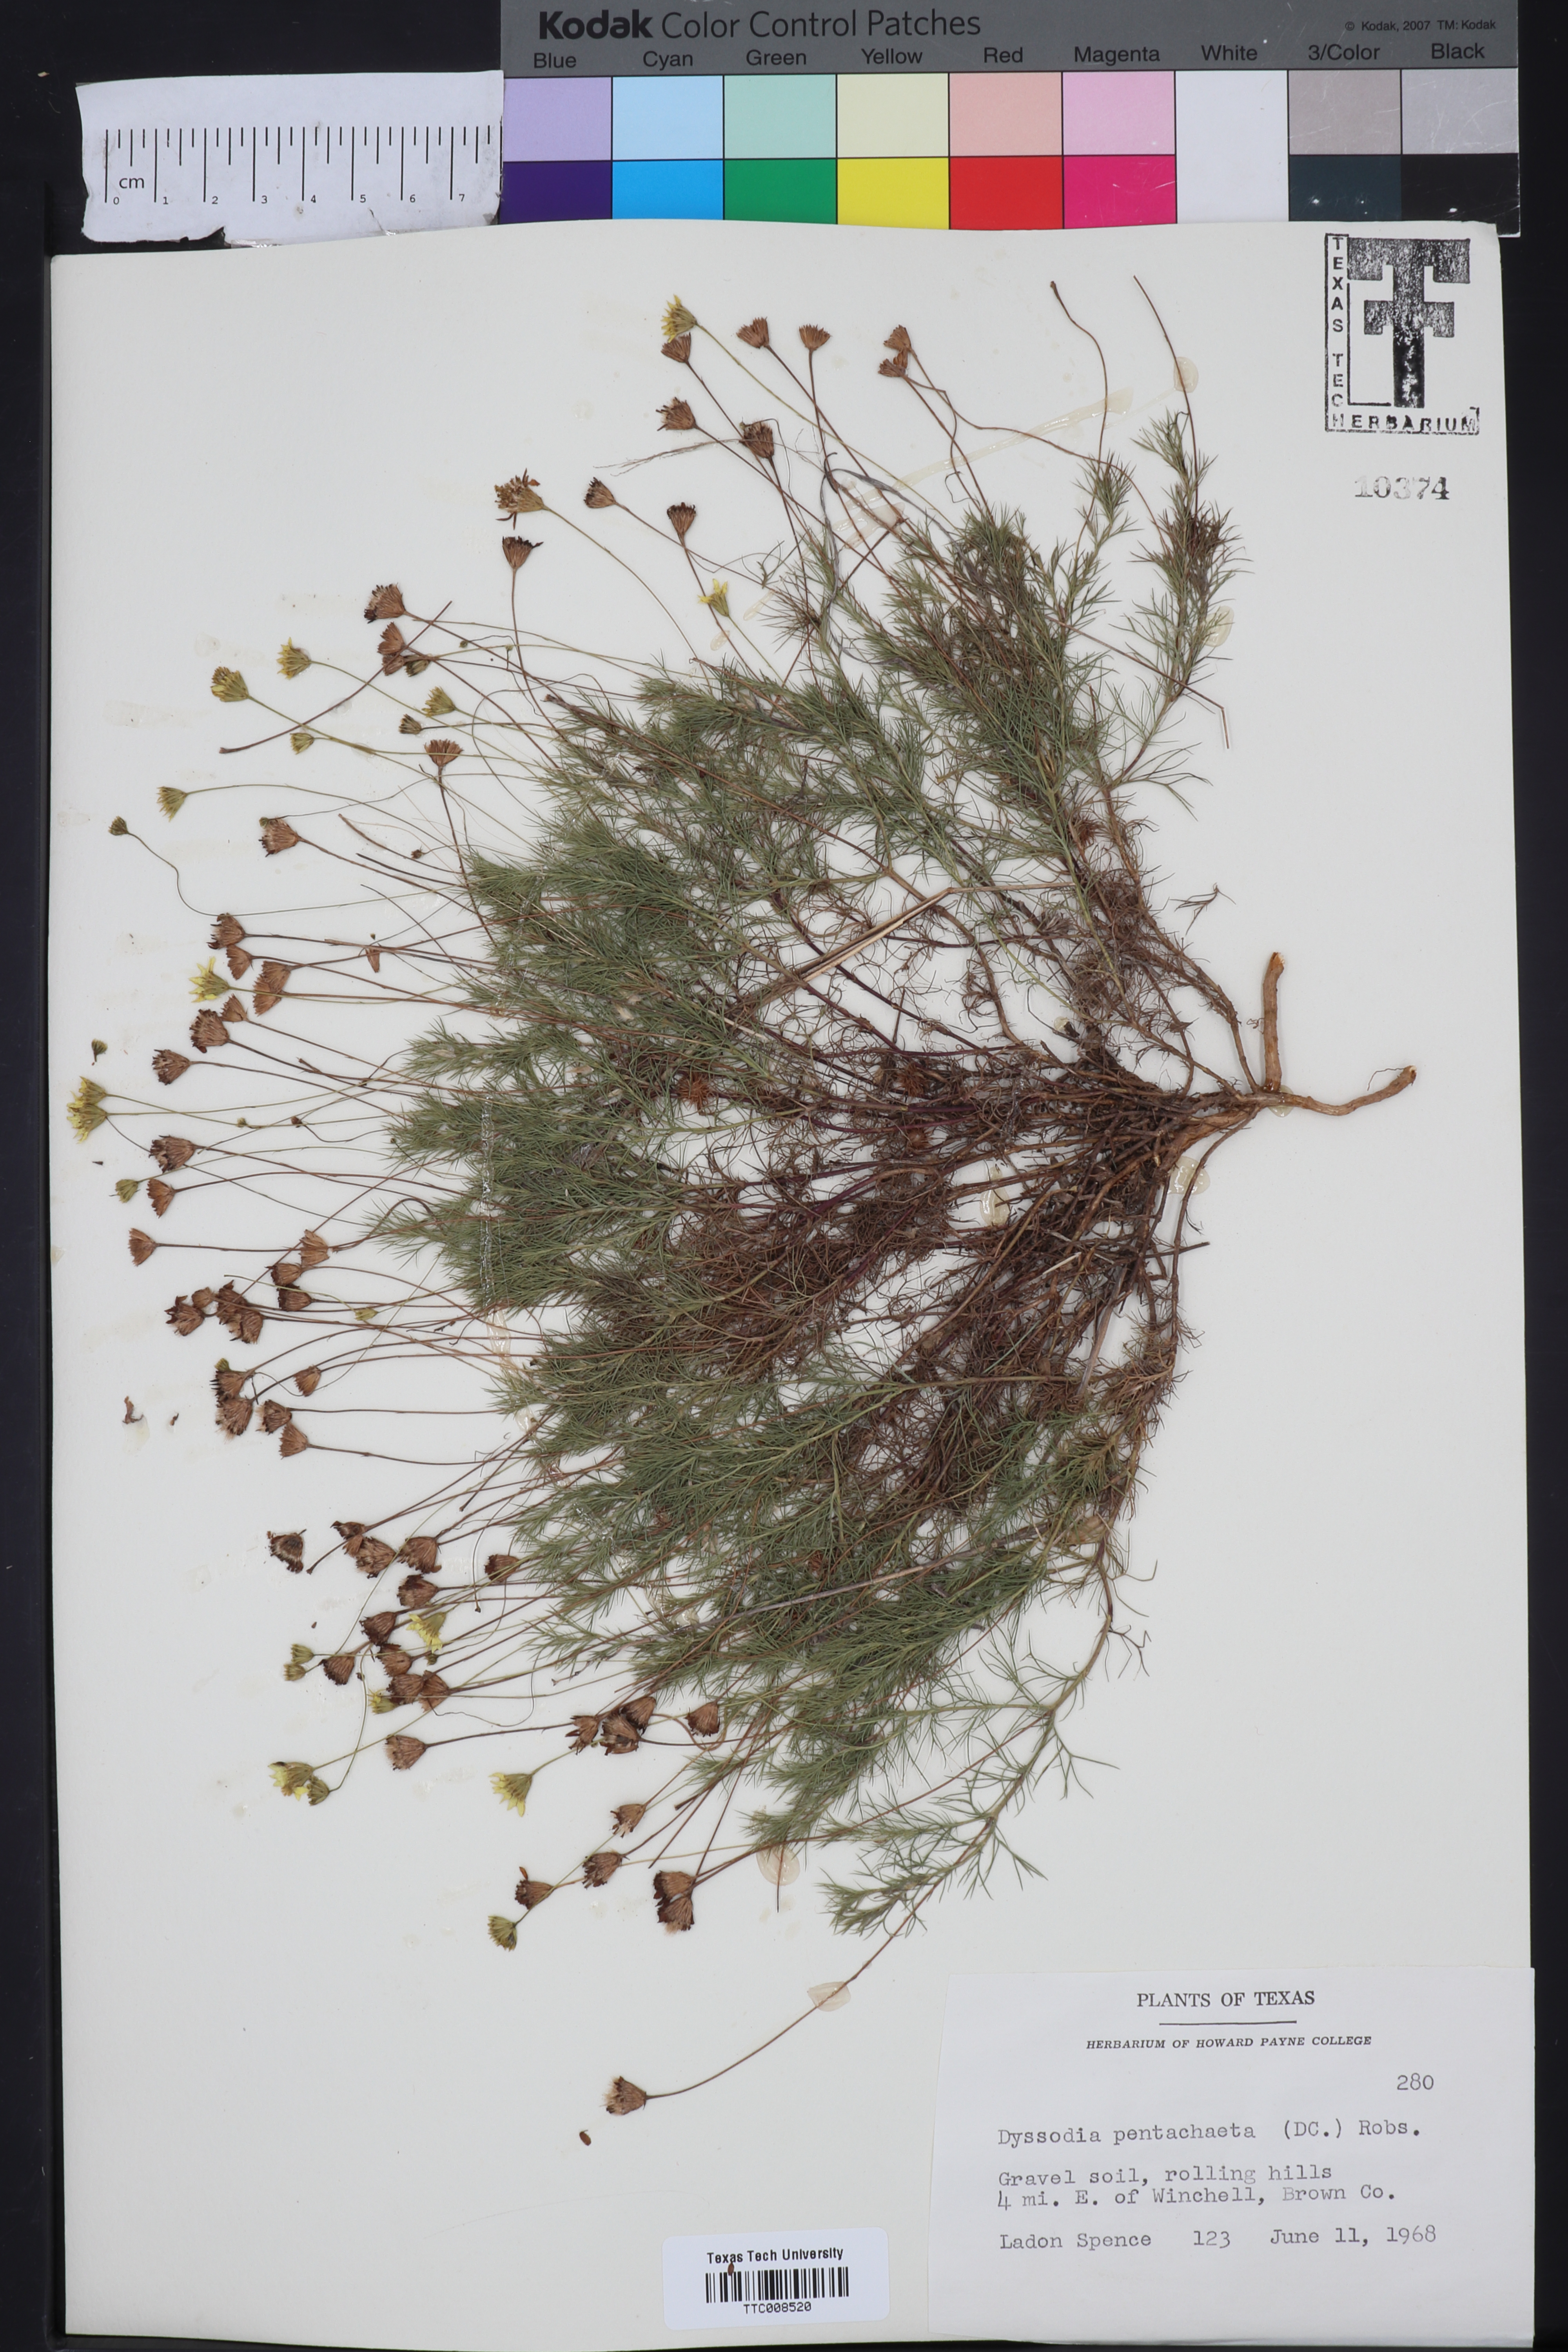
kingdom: Plantae
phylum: Tracheophyta
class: Magnoliopsida
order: Asterales
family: Asteraceae
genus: Thymophylla
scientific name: Thymophylla pentachaeta
